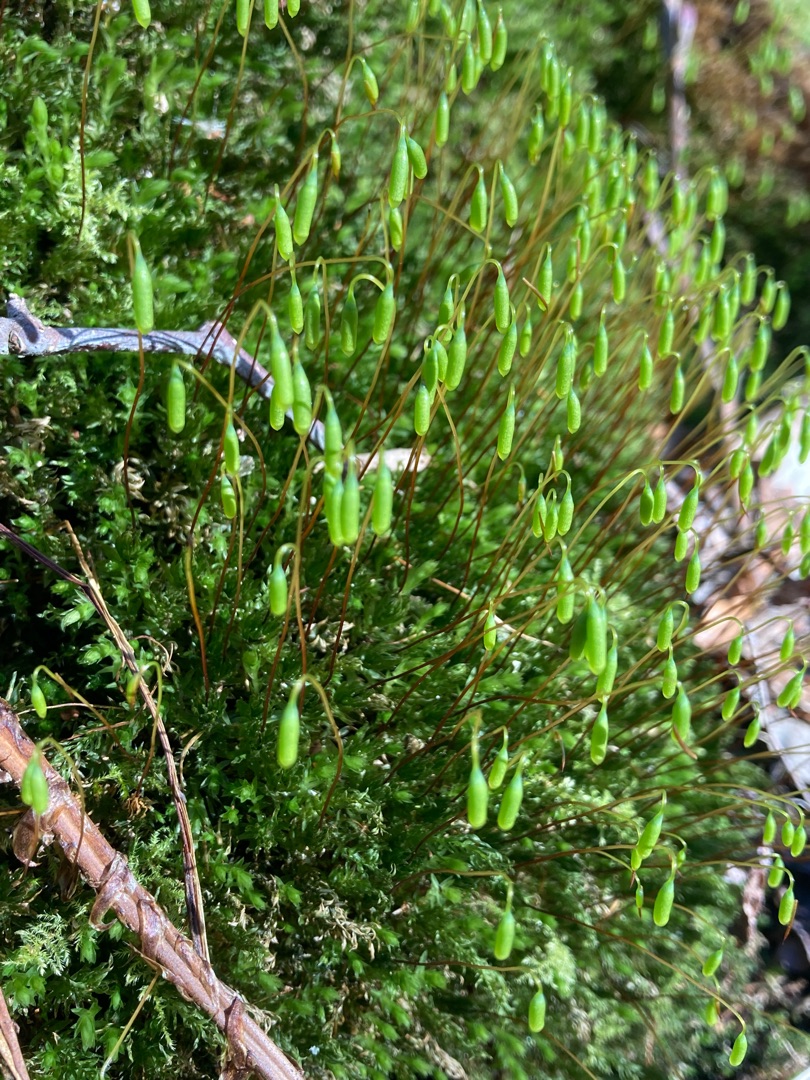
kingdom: Plantae
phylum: Bryophyta
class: Bryopsida
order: Bryales
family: Mniaceae
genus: Mnium
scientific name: Mnium hornum
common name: Brunfiltet stjernemos
